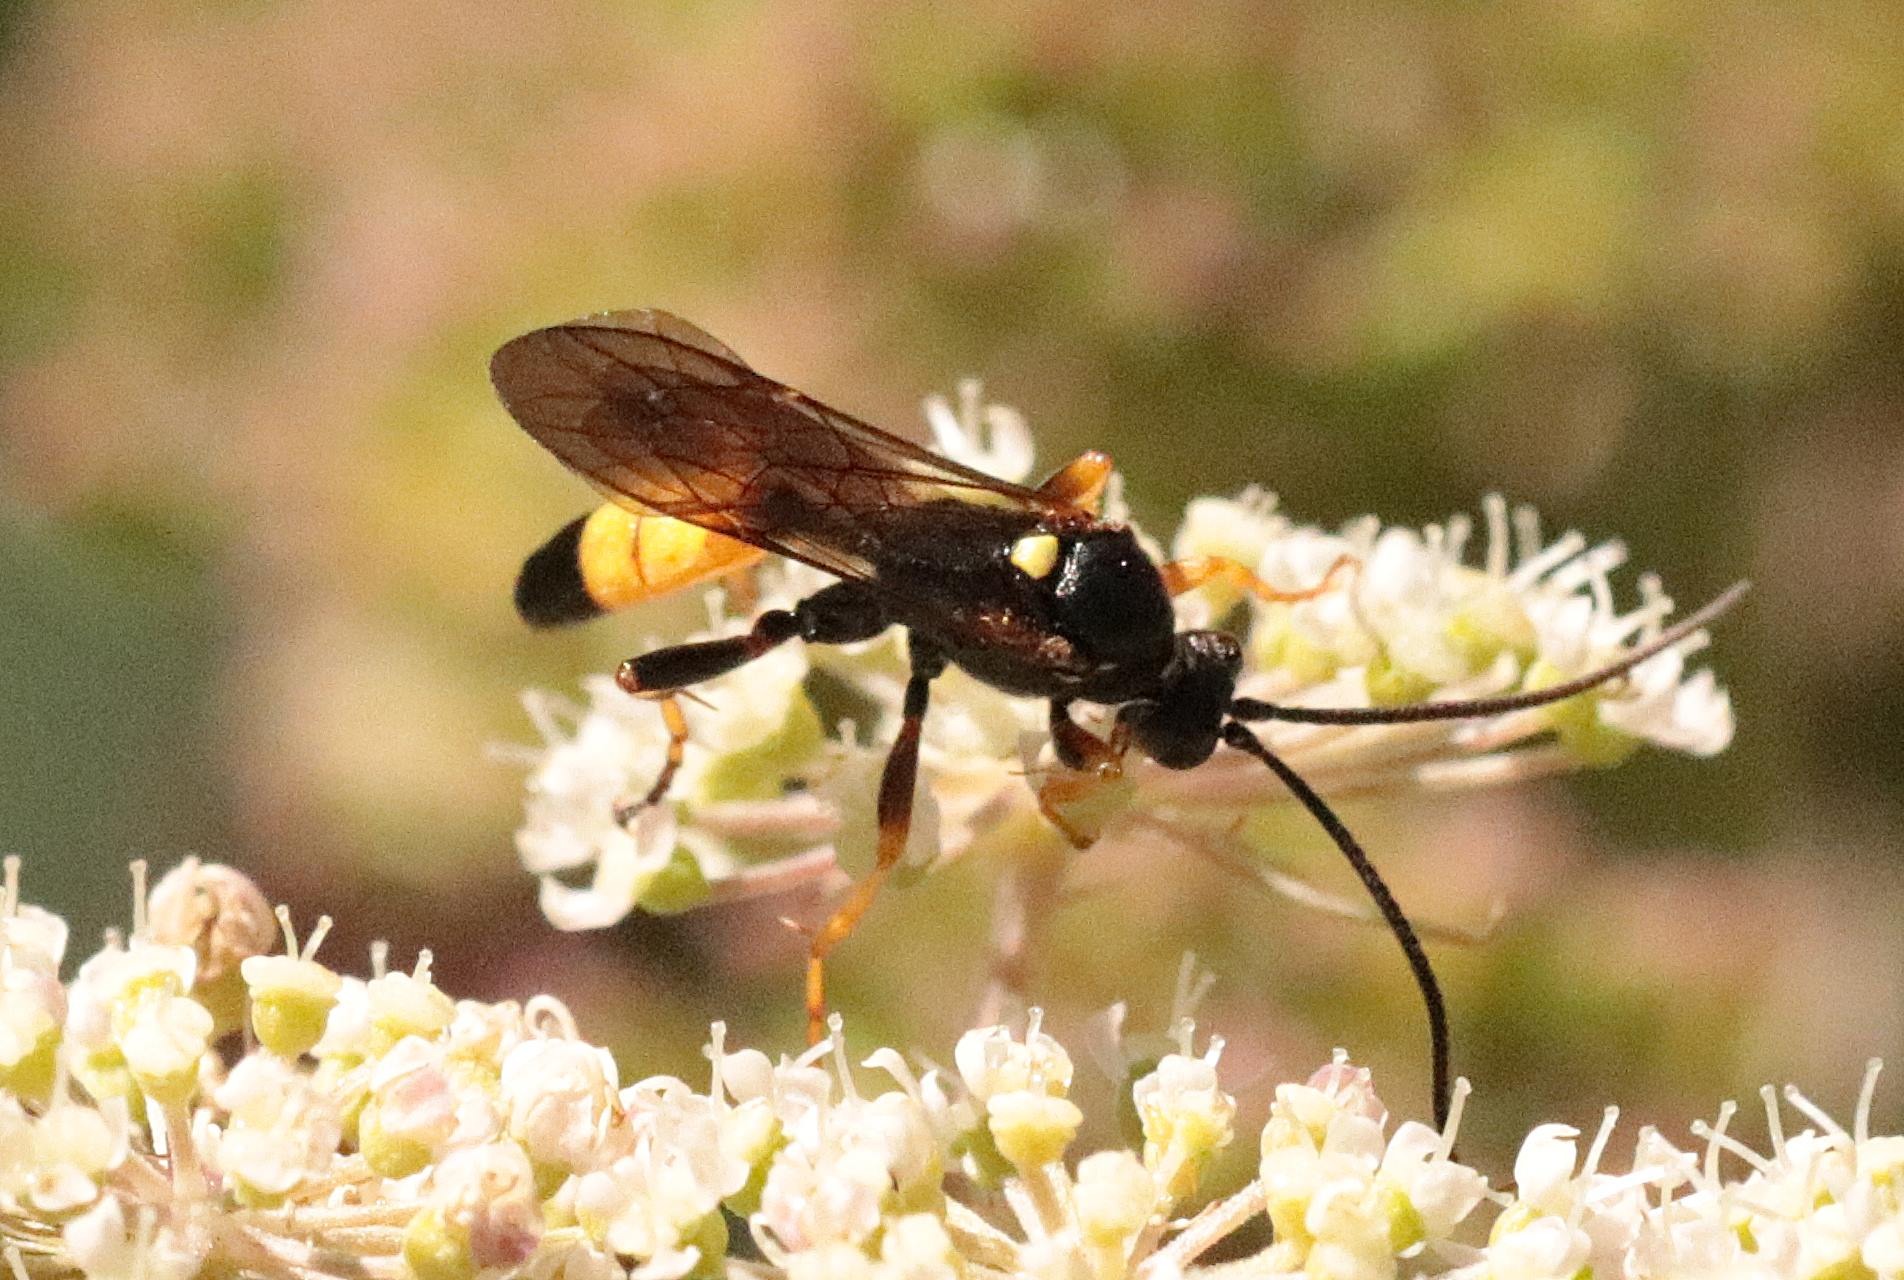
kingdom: Animalia
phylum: Arthropoda
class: Insecta
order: Hymenoptera
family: Ichneumonidae
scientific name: Ichneumonidae
